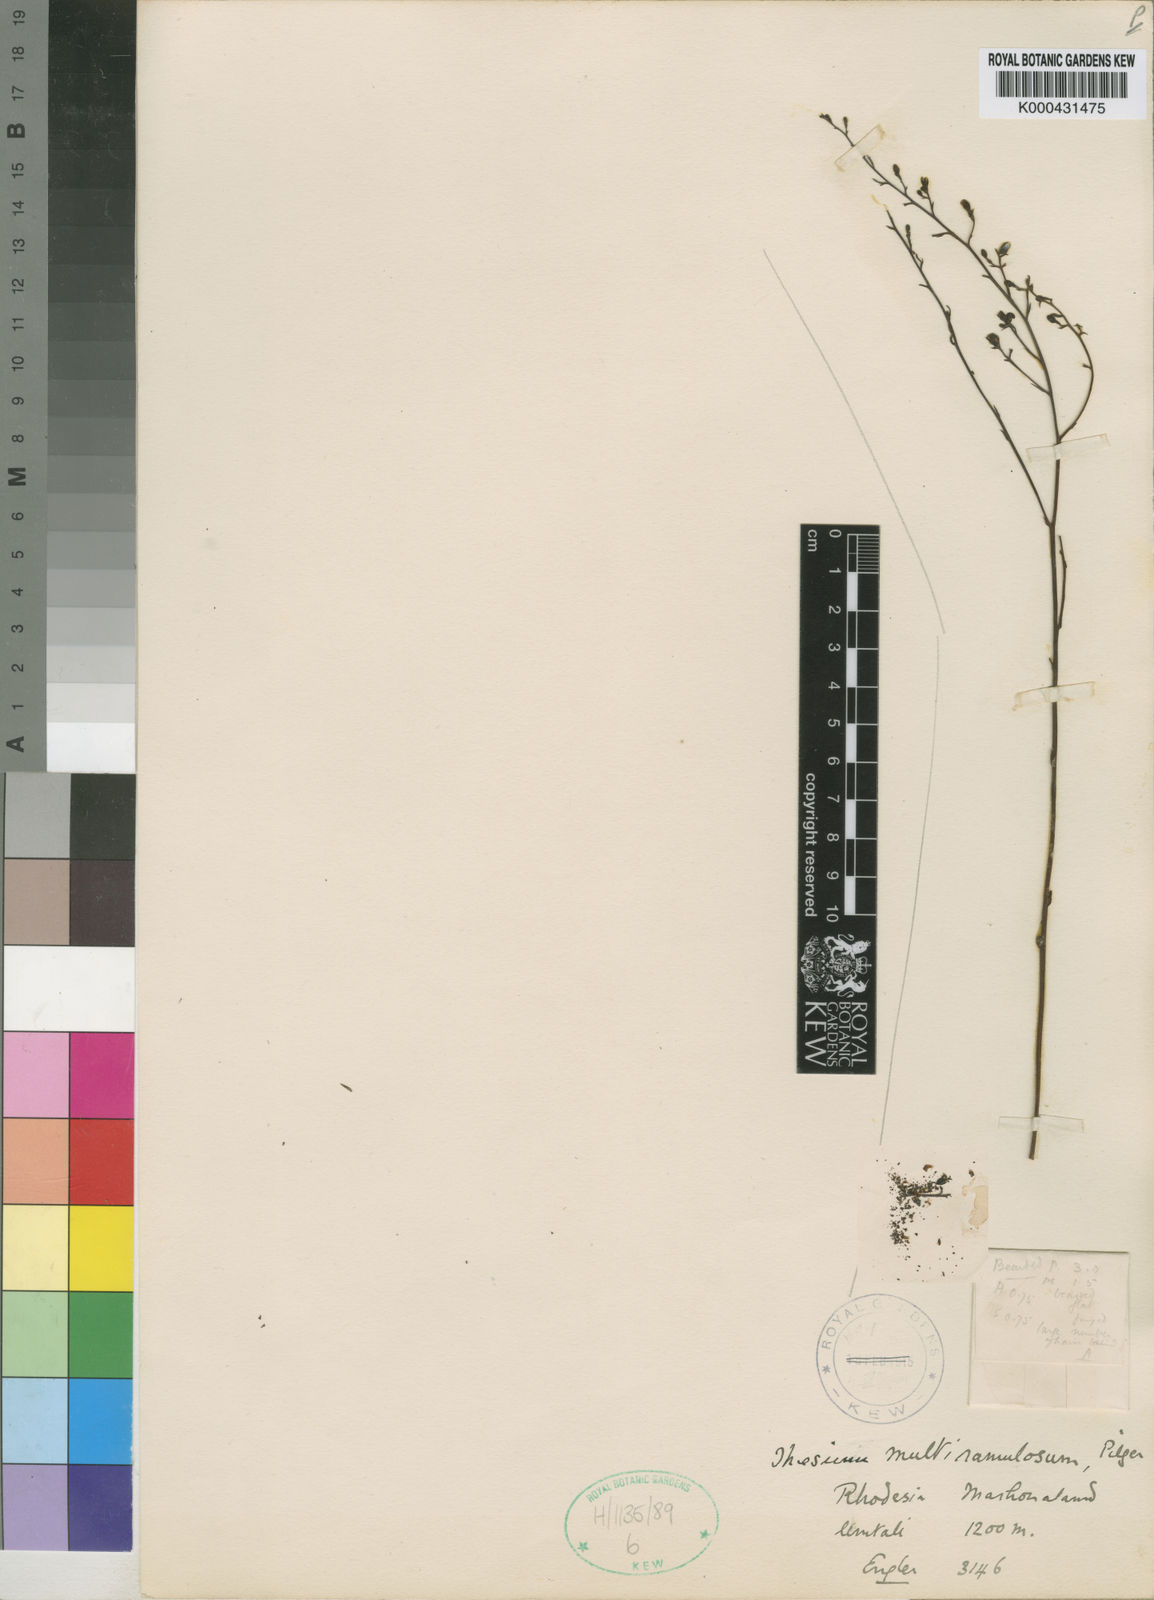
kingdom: Plantae
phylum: Tracheophyta
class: Magnoliopsida
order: Santalales
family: Thesiaceae
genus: Thesium
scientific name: Thesium multiramulosum
